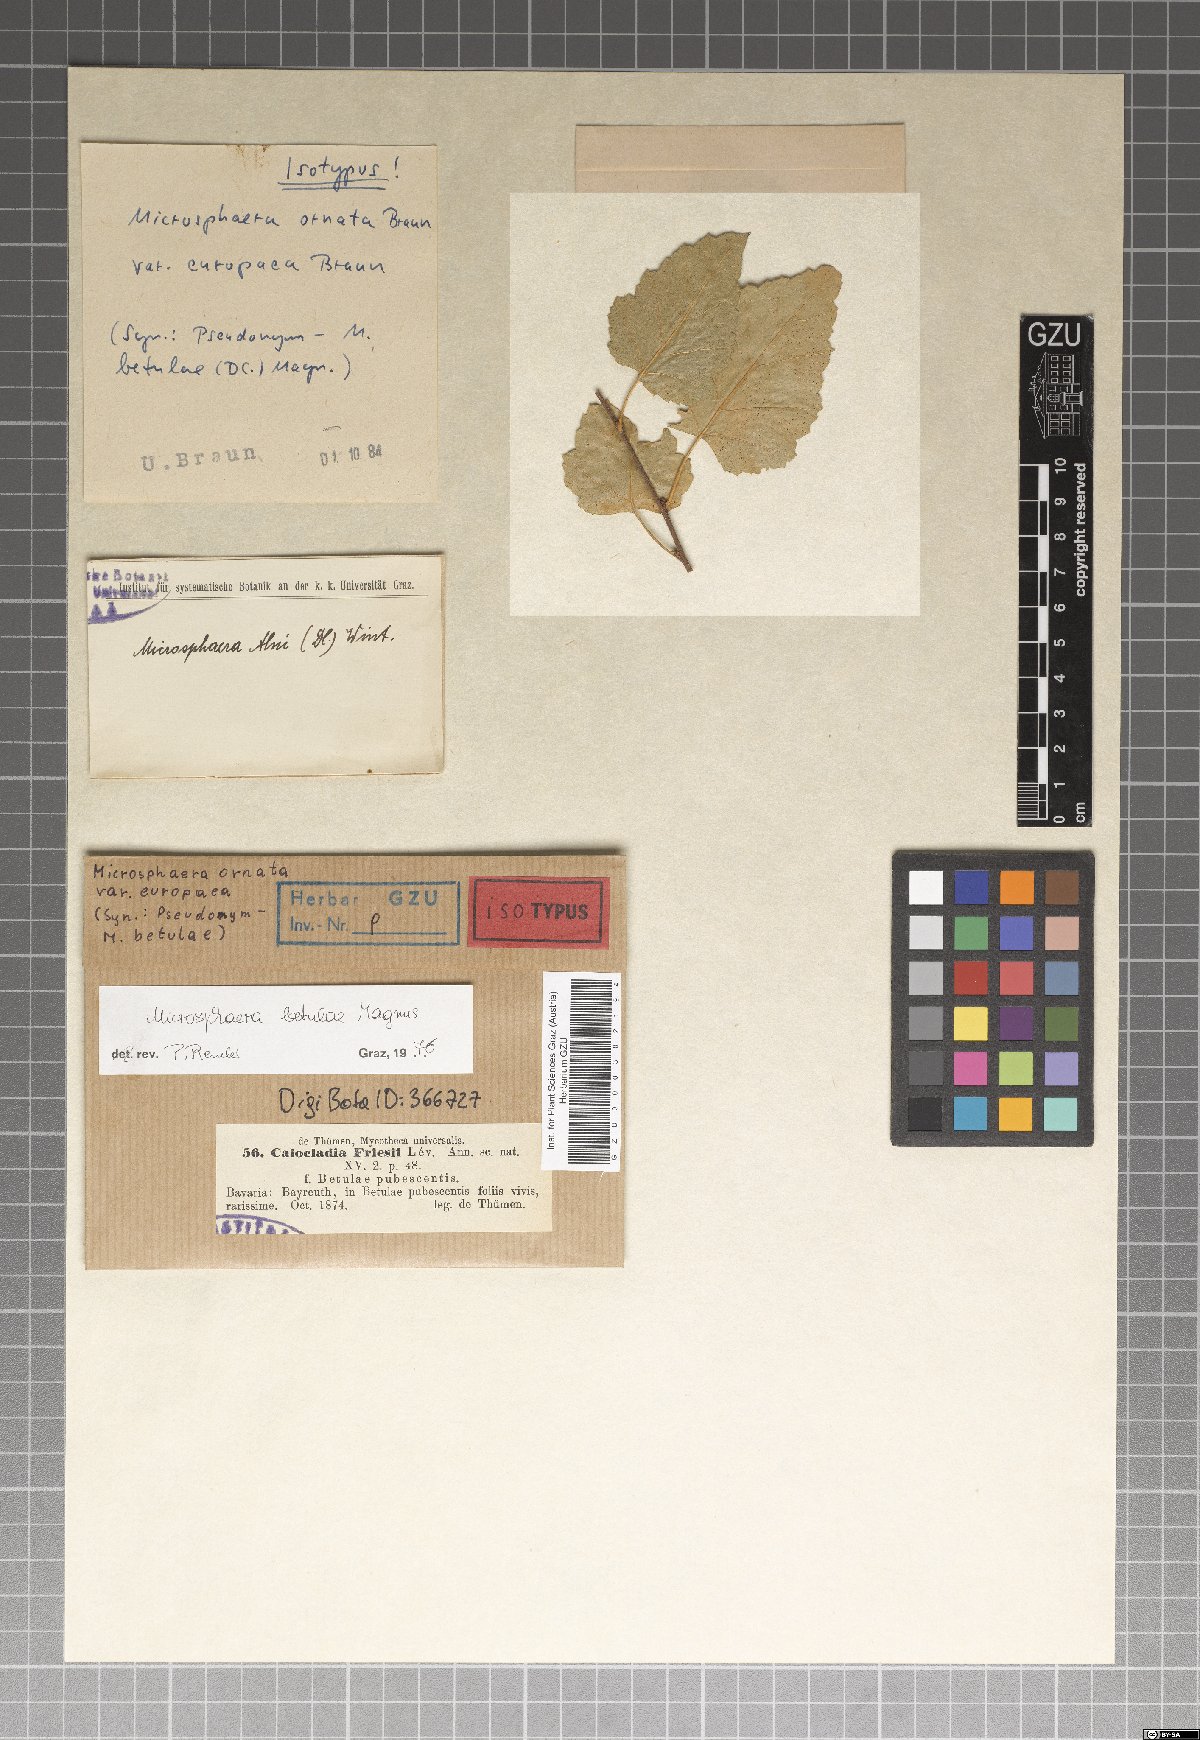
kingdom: Fungi
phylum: Ascomycota
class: Leotiomycetes
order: Helotiales
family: Erysiphaceae
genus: Erysiphe
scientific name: Erysiphe ornata
